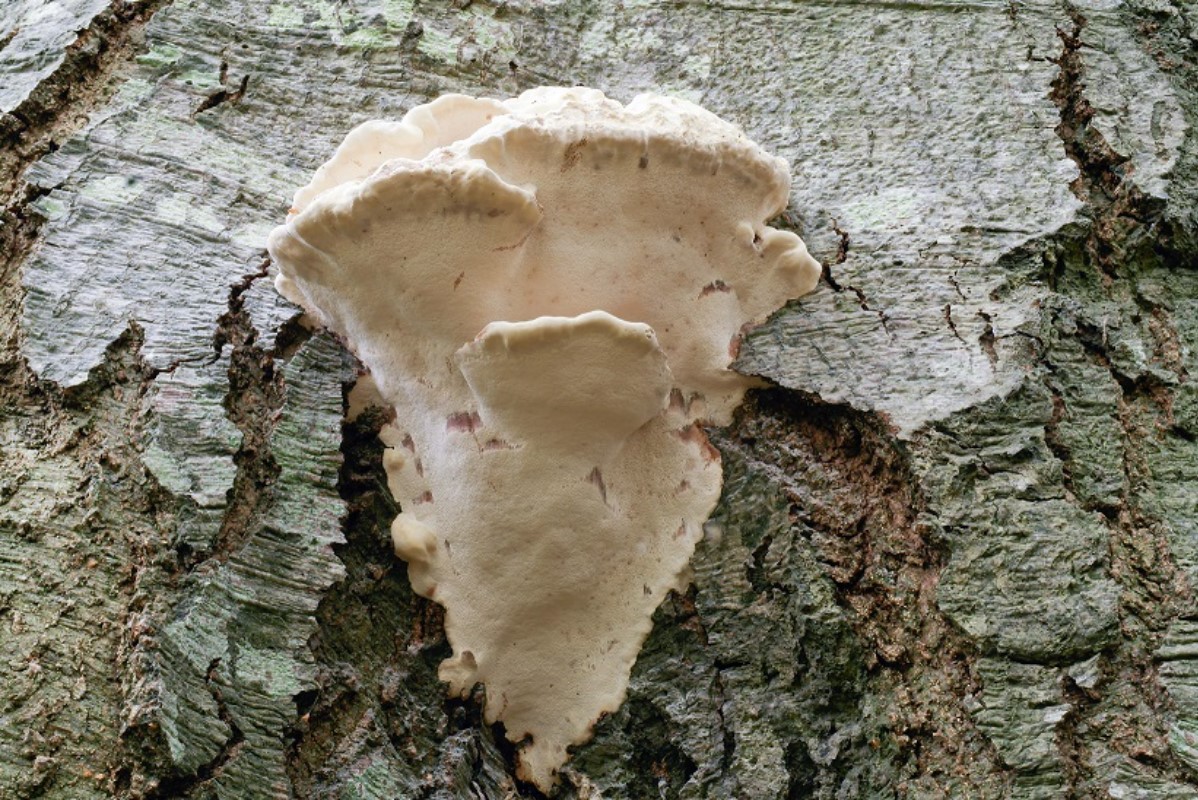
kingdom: Fungi
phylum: Basidiomycota
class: Agaricomycetes
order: Polyporales
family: Polyporaceae
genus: Vanderbylia
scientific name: Vanderbylia fraxinea
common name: stor kanelporesvamp
